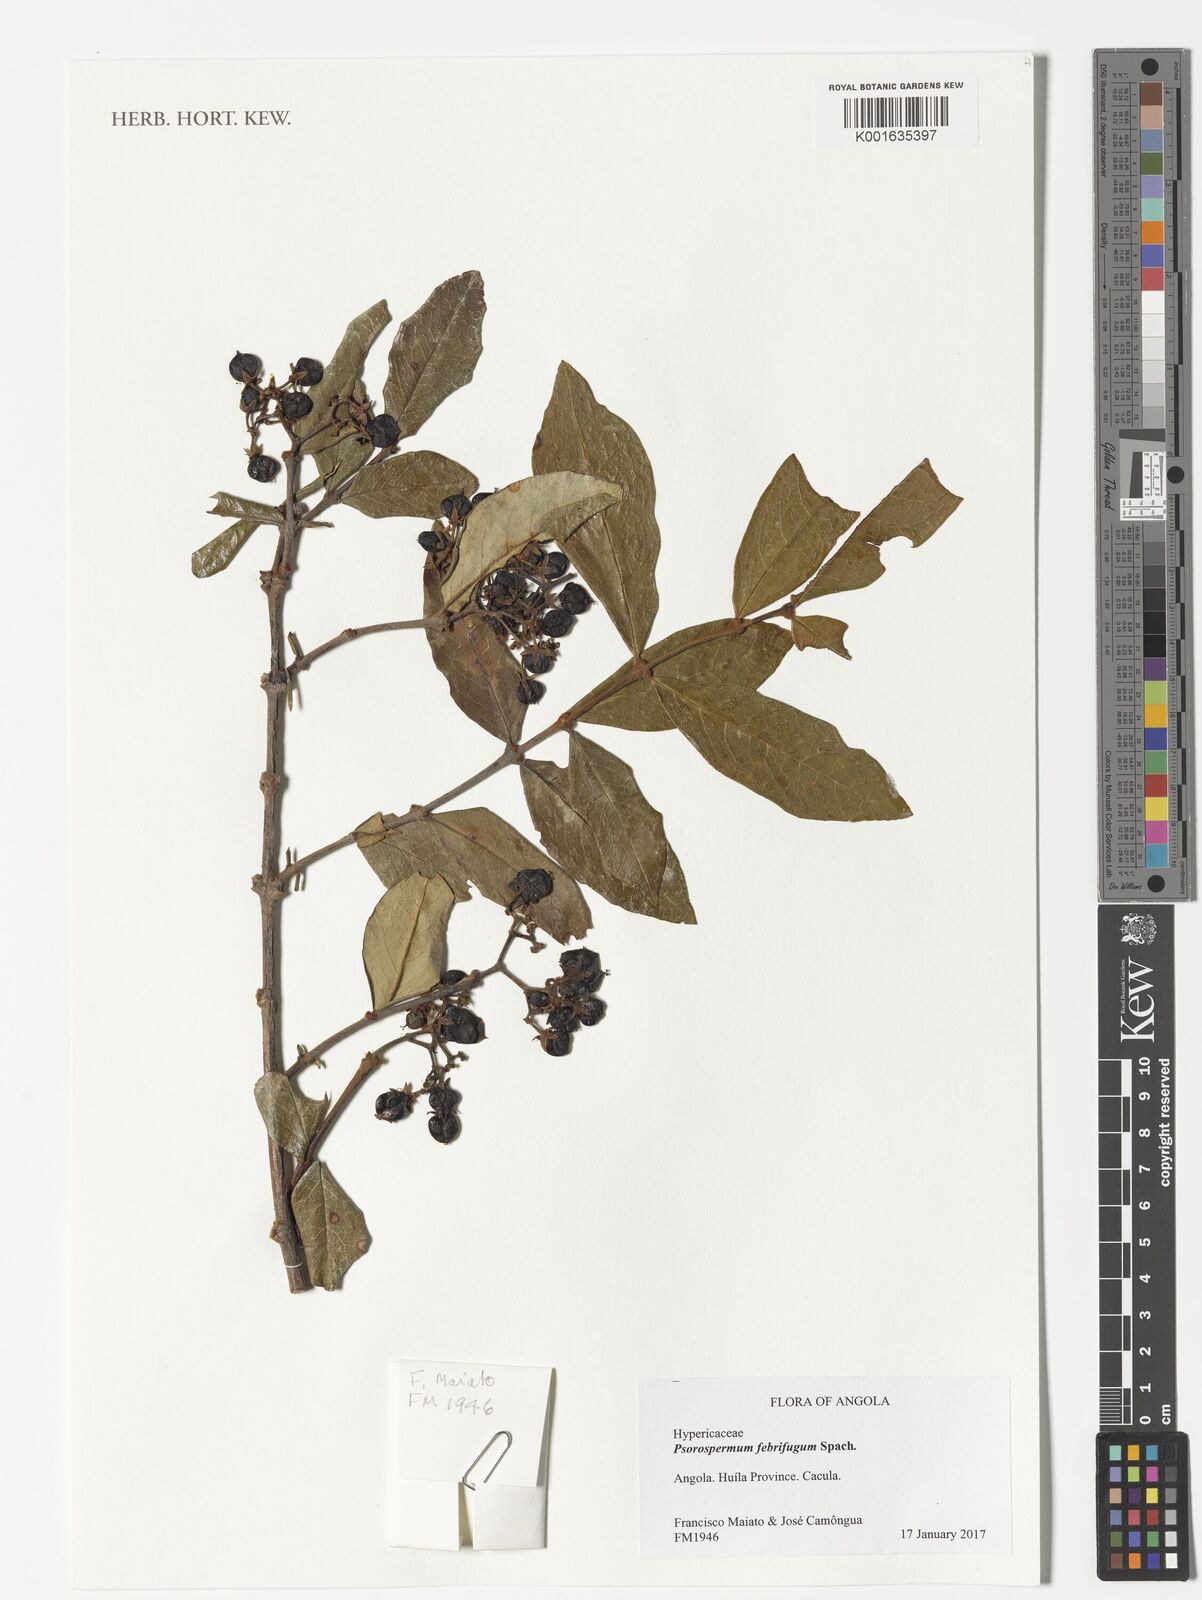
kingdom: Plantae
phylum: Tracheophyta
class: Magnoliopsida
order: Malpighiales
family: Hypericaceae
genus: Psorospermum
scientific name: Psorospermum febrifugum
